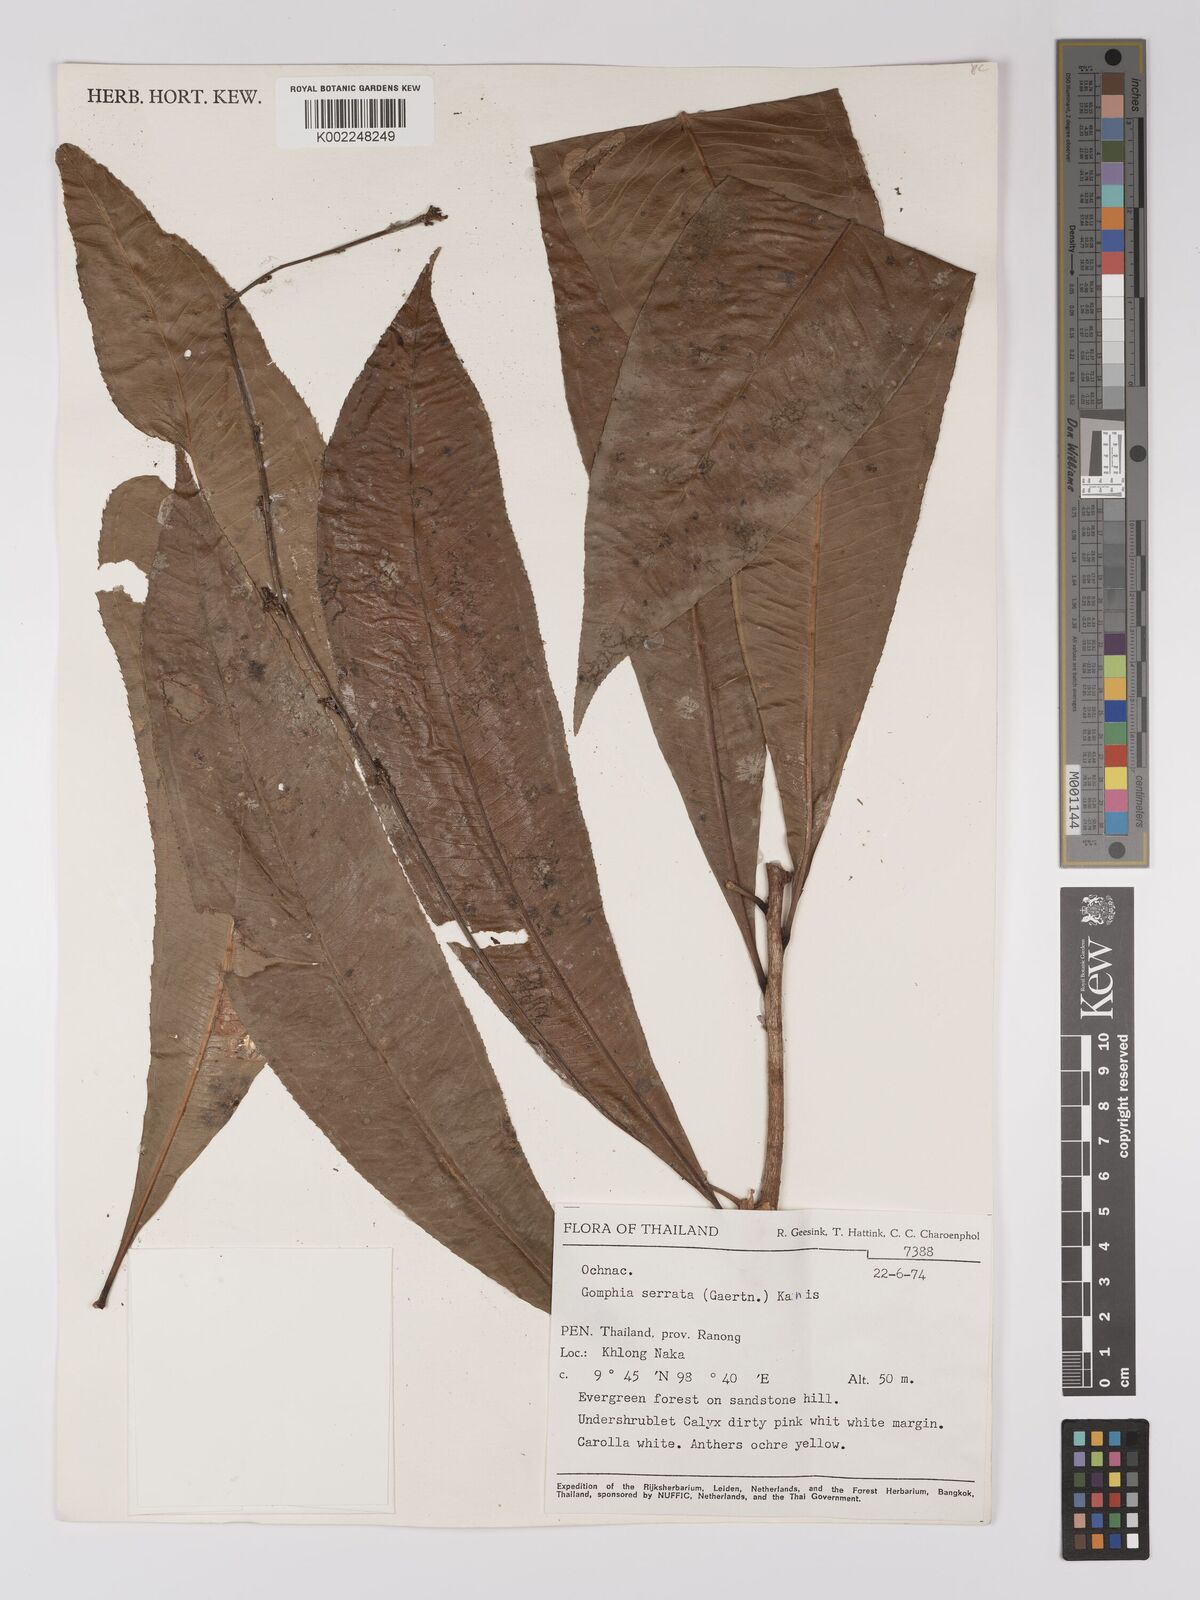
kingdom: Plantae
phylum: Tracheophyta
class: Magnoliopsida
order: Malpighiales
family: Ochnaceae
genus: Campylospermum
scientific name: Campylospermum
